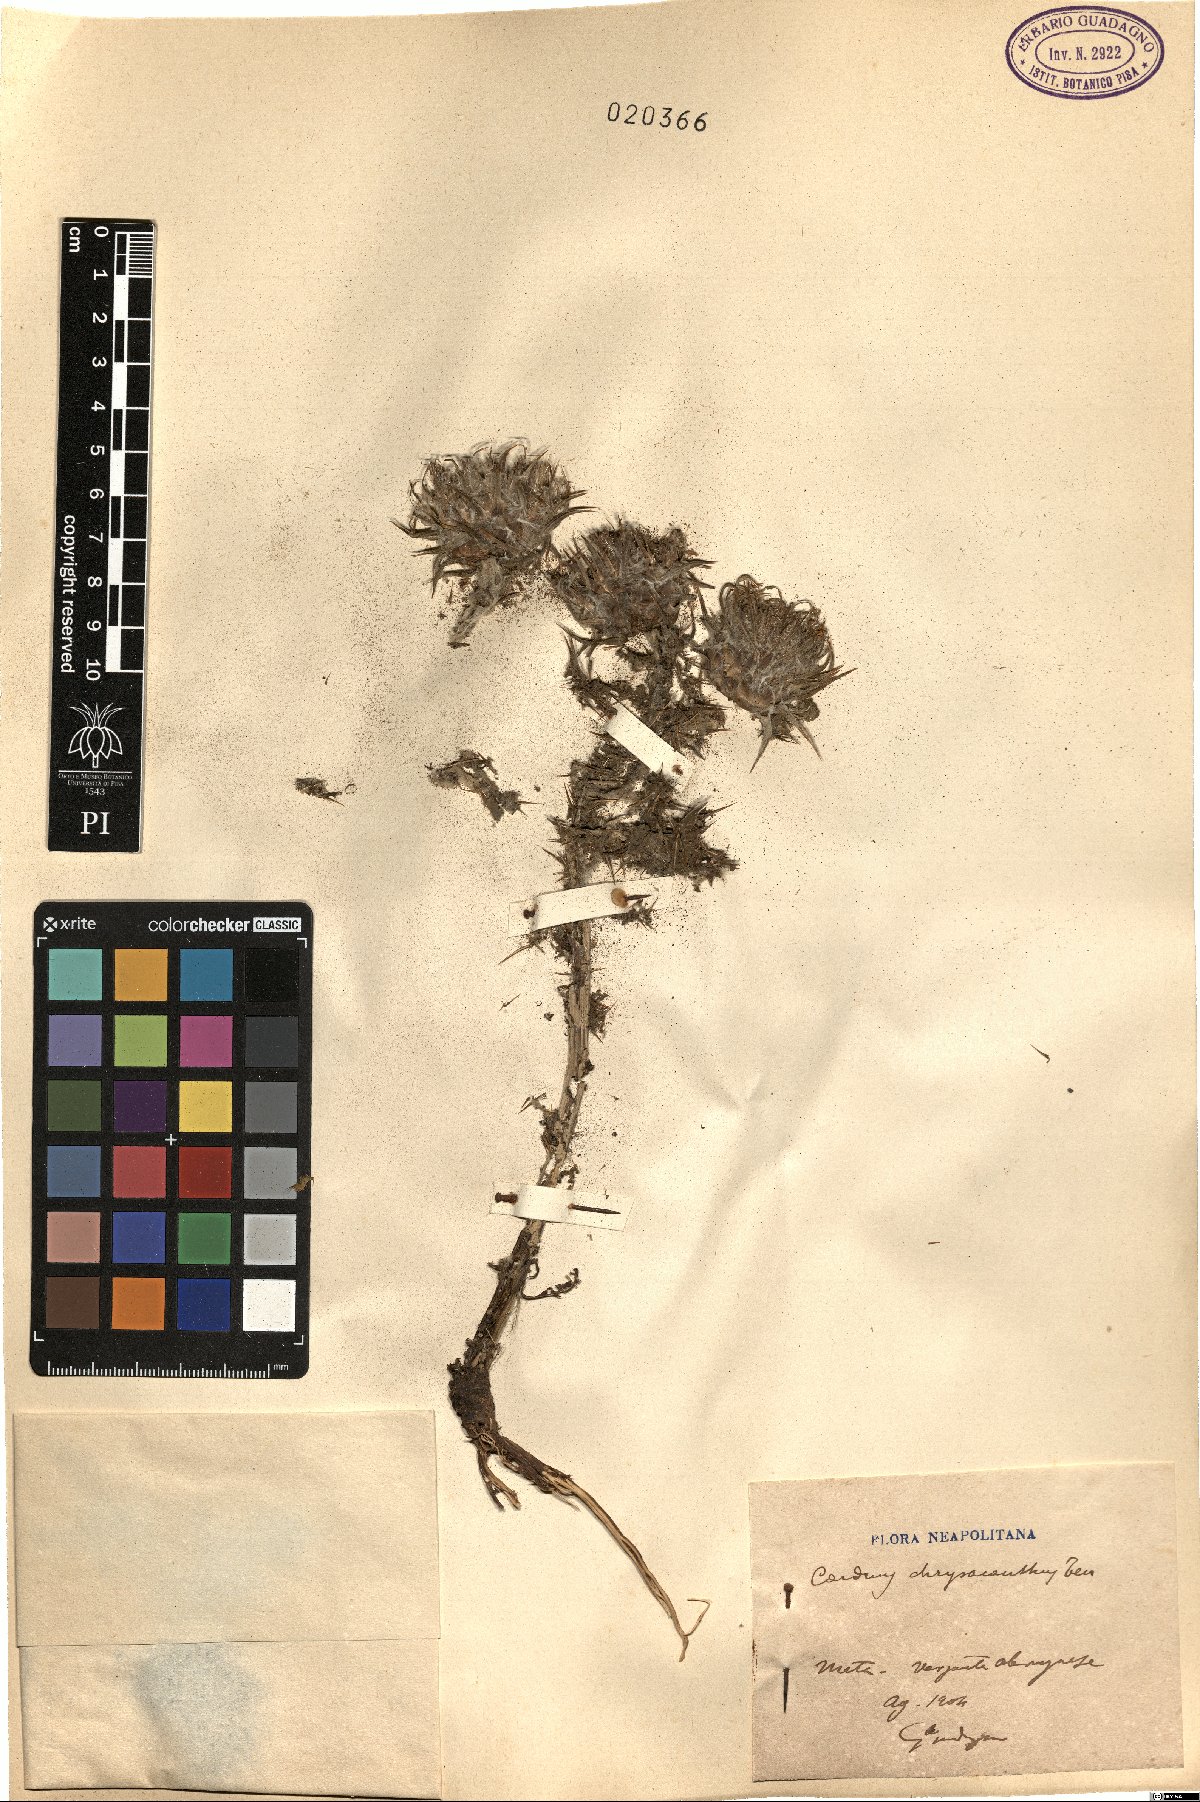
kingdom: Plantae
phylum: Tracheophyta
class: Magnoliopsida
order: Asterales
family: Asteraceae
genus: Carduus
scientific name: Carduus chrysacanthus
